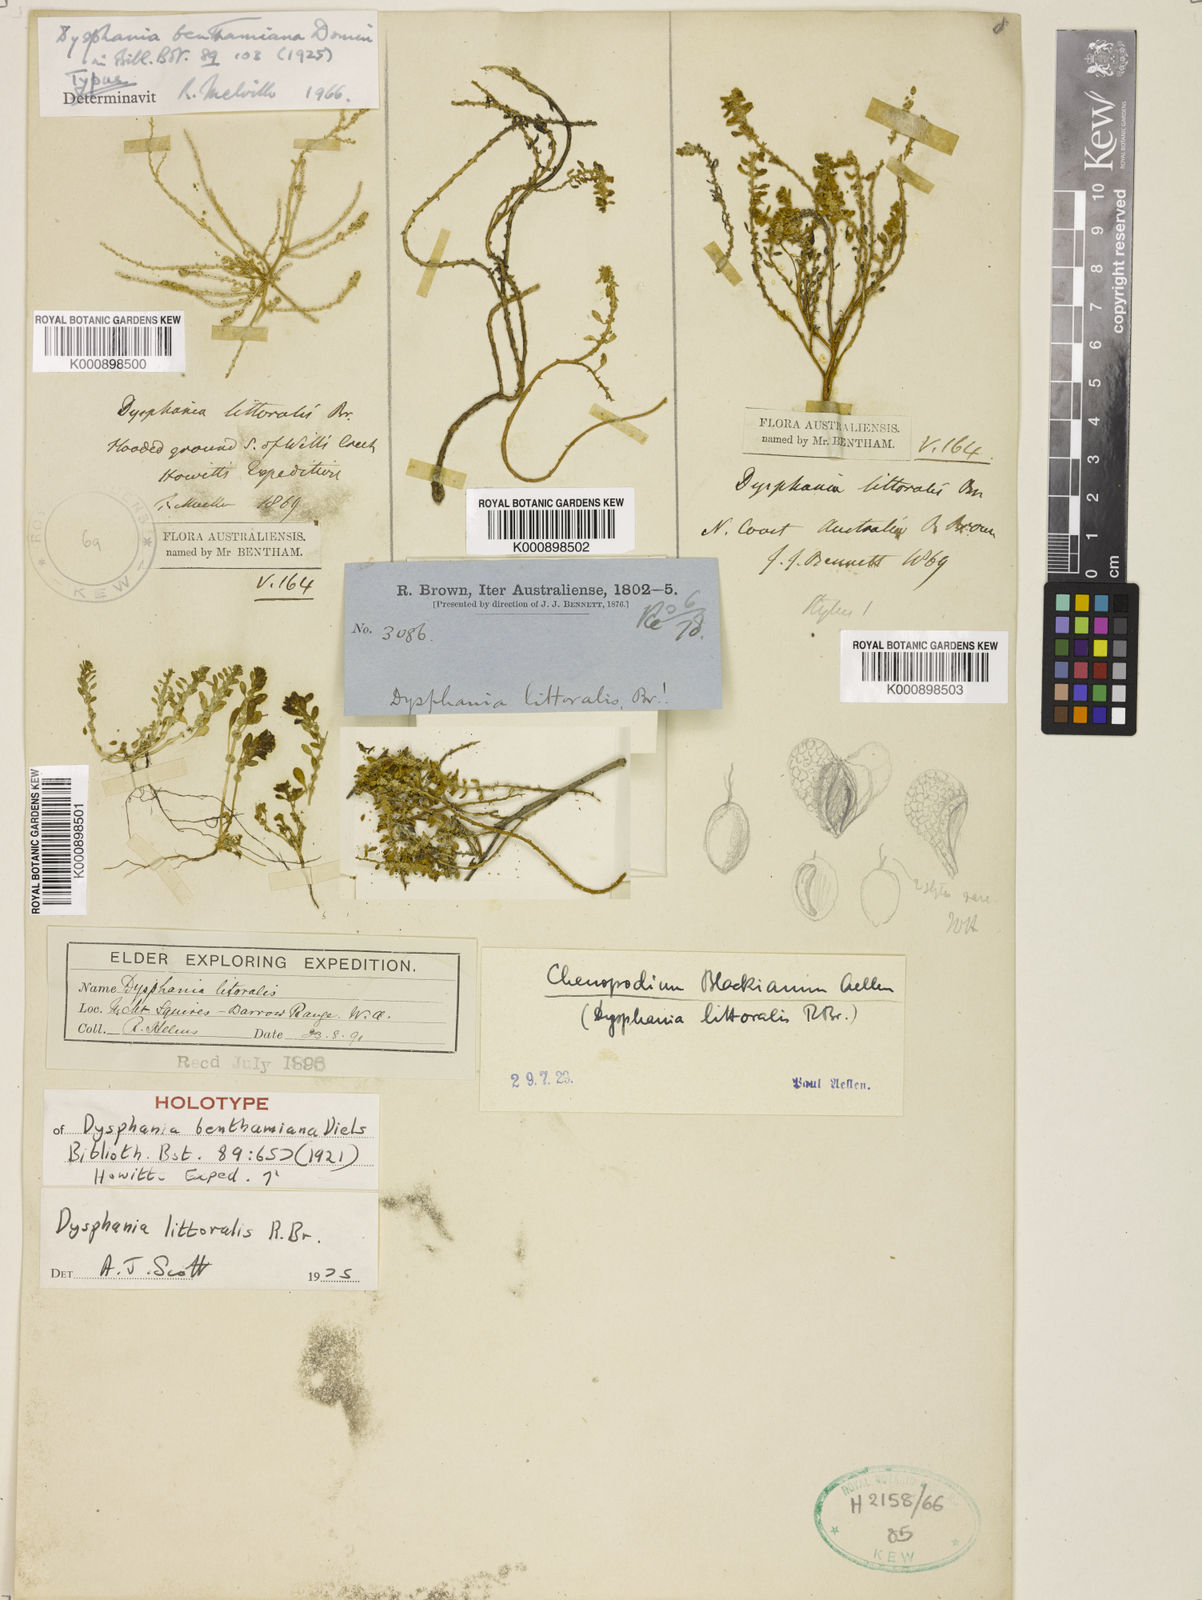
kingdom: Plantae
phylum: Tracheophyta
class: Magnoliopsida
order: Caryophyllales
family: Amaranthaceae
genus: Dysphania
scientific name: Dysphania
